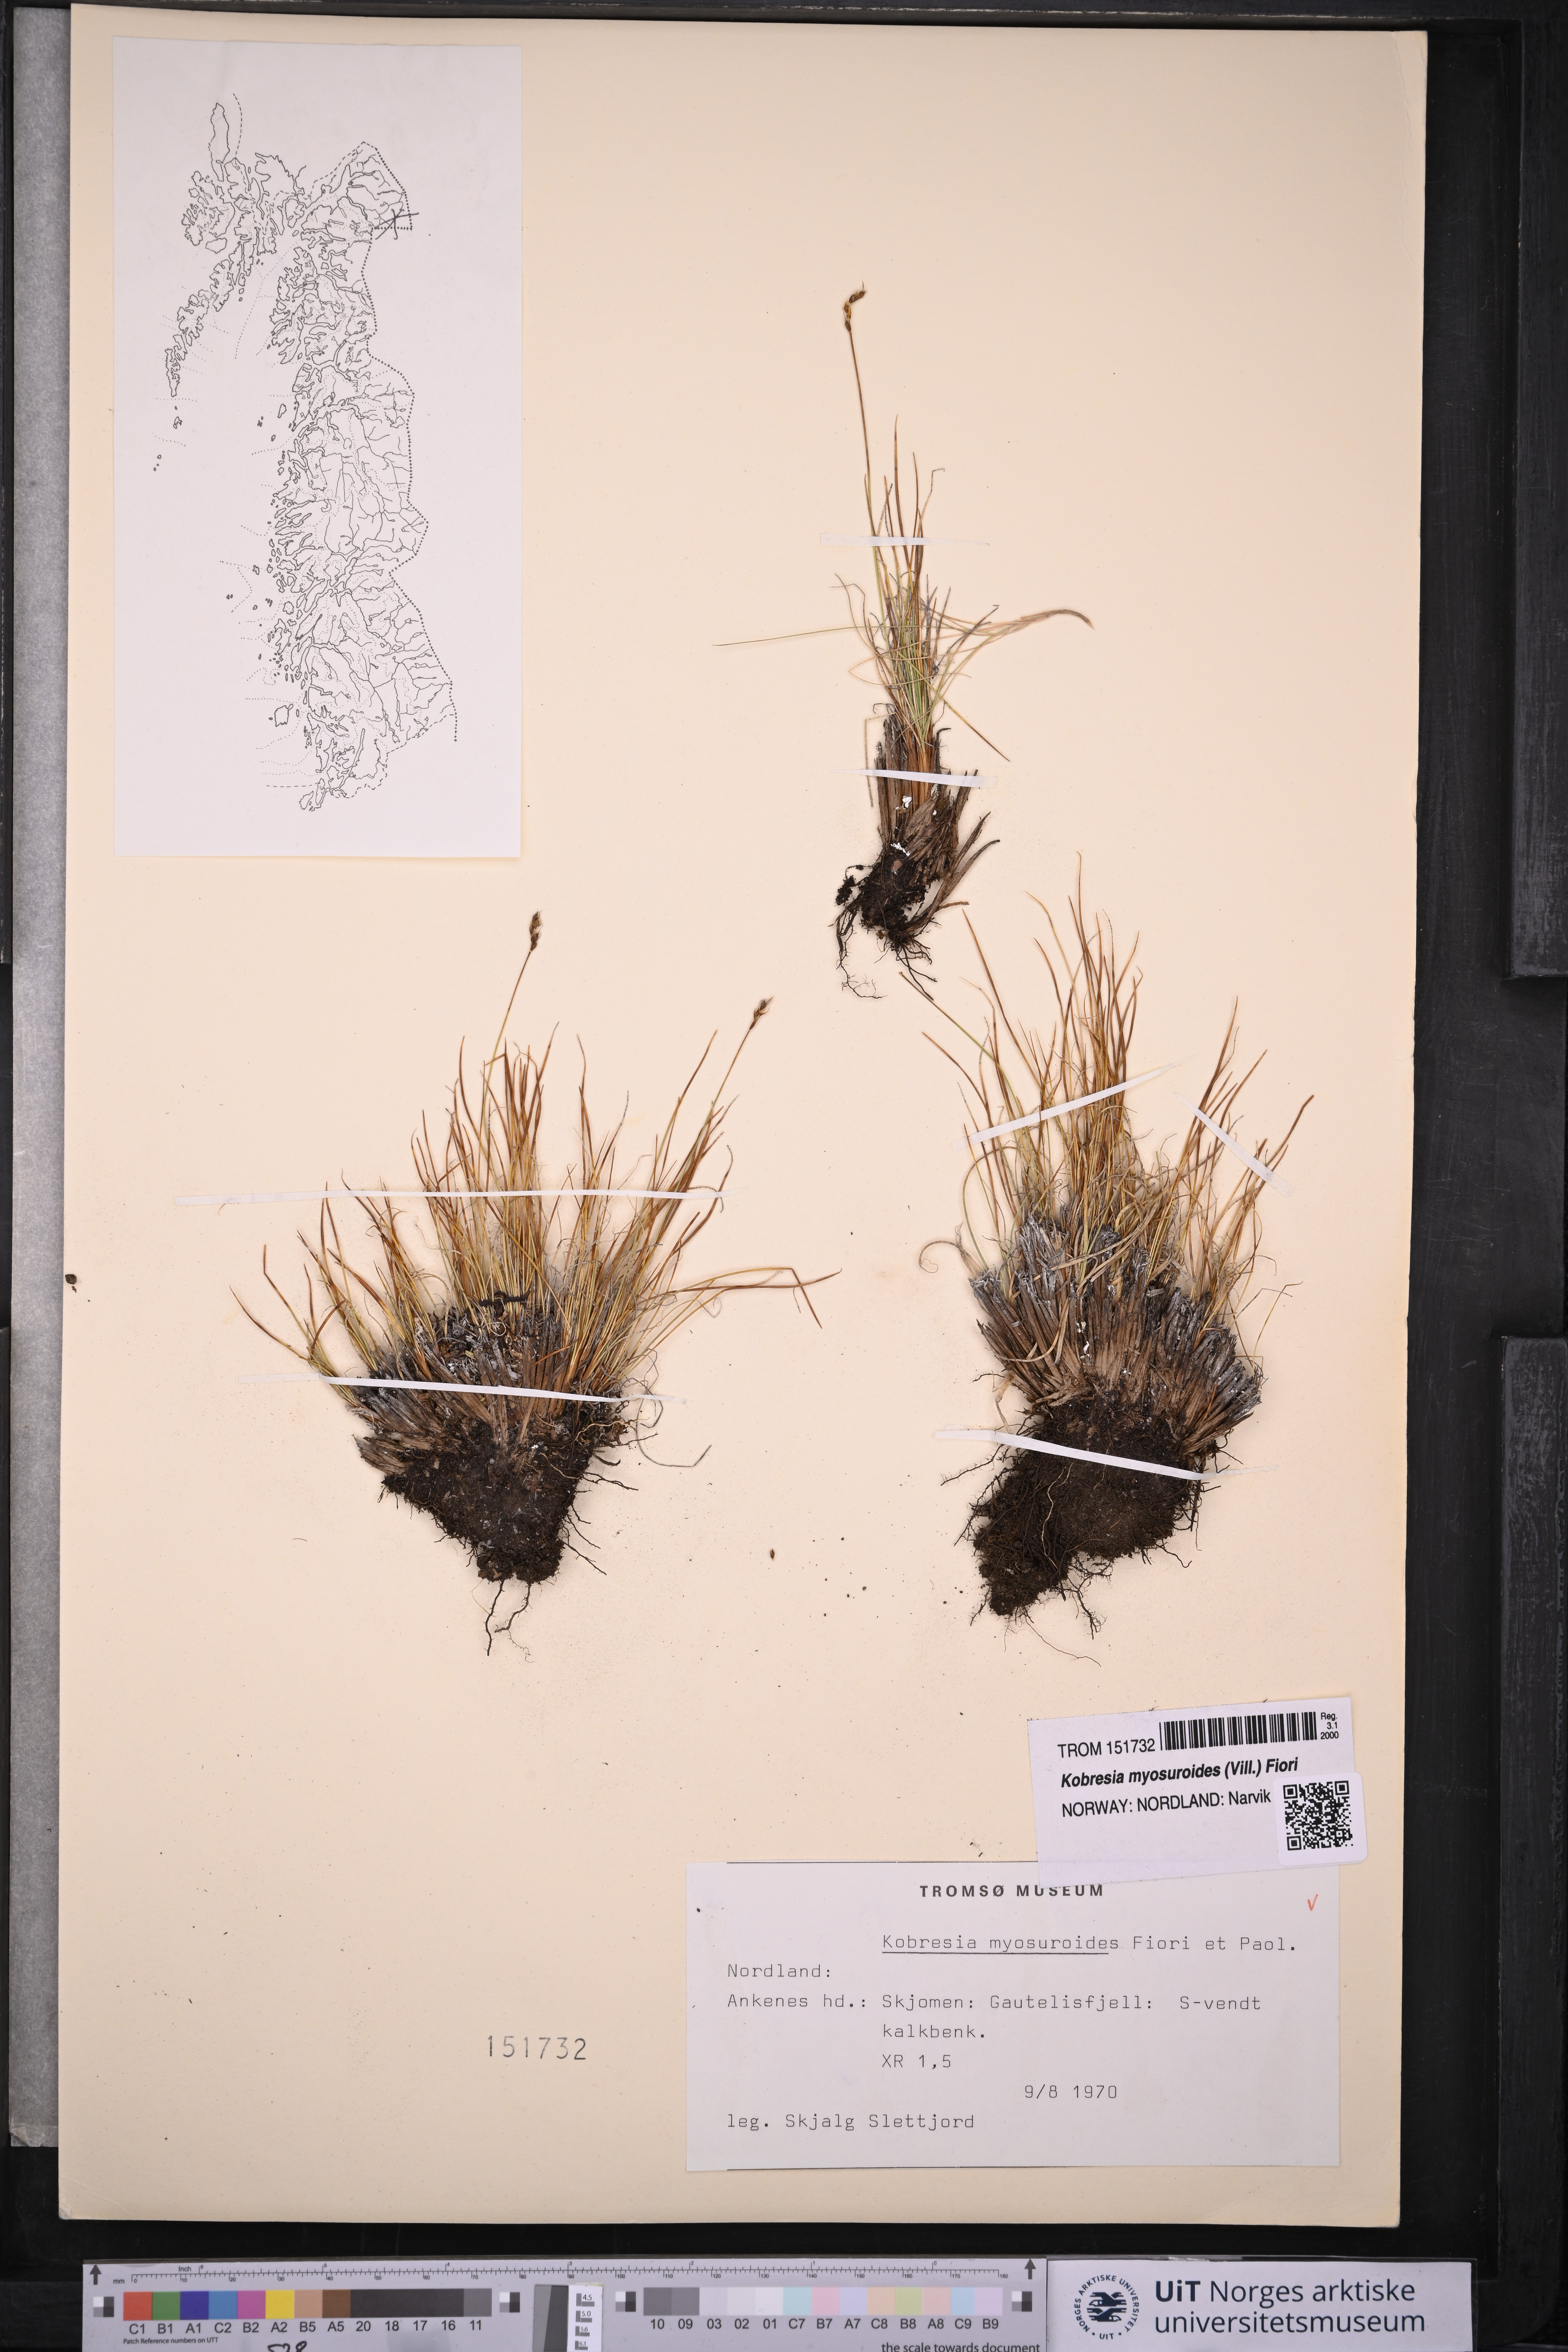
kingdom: Plantae
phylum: Tracheophyta
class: Liliopsida
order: Poales
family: Cyperaceae
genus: Carex
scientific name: Carex myosuroides
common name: Bellard's bog sedge
